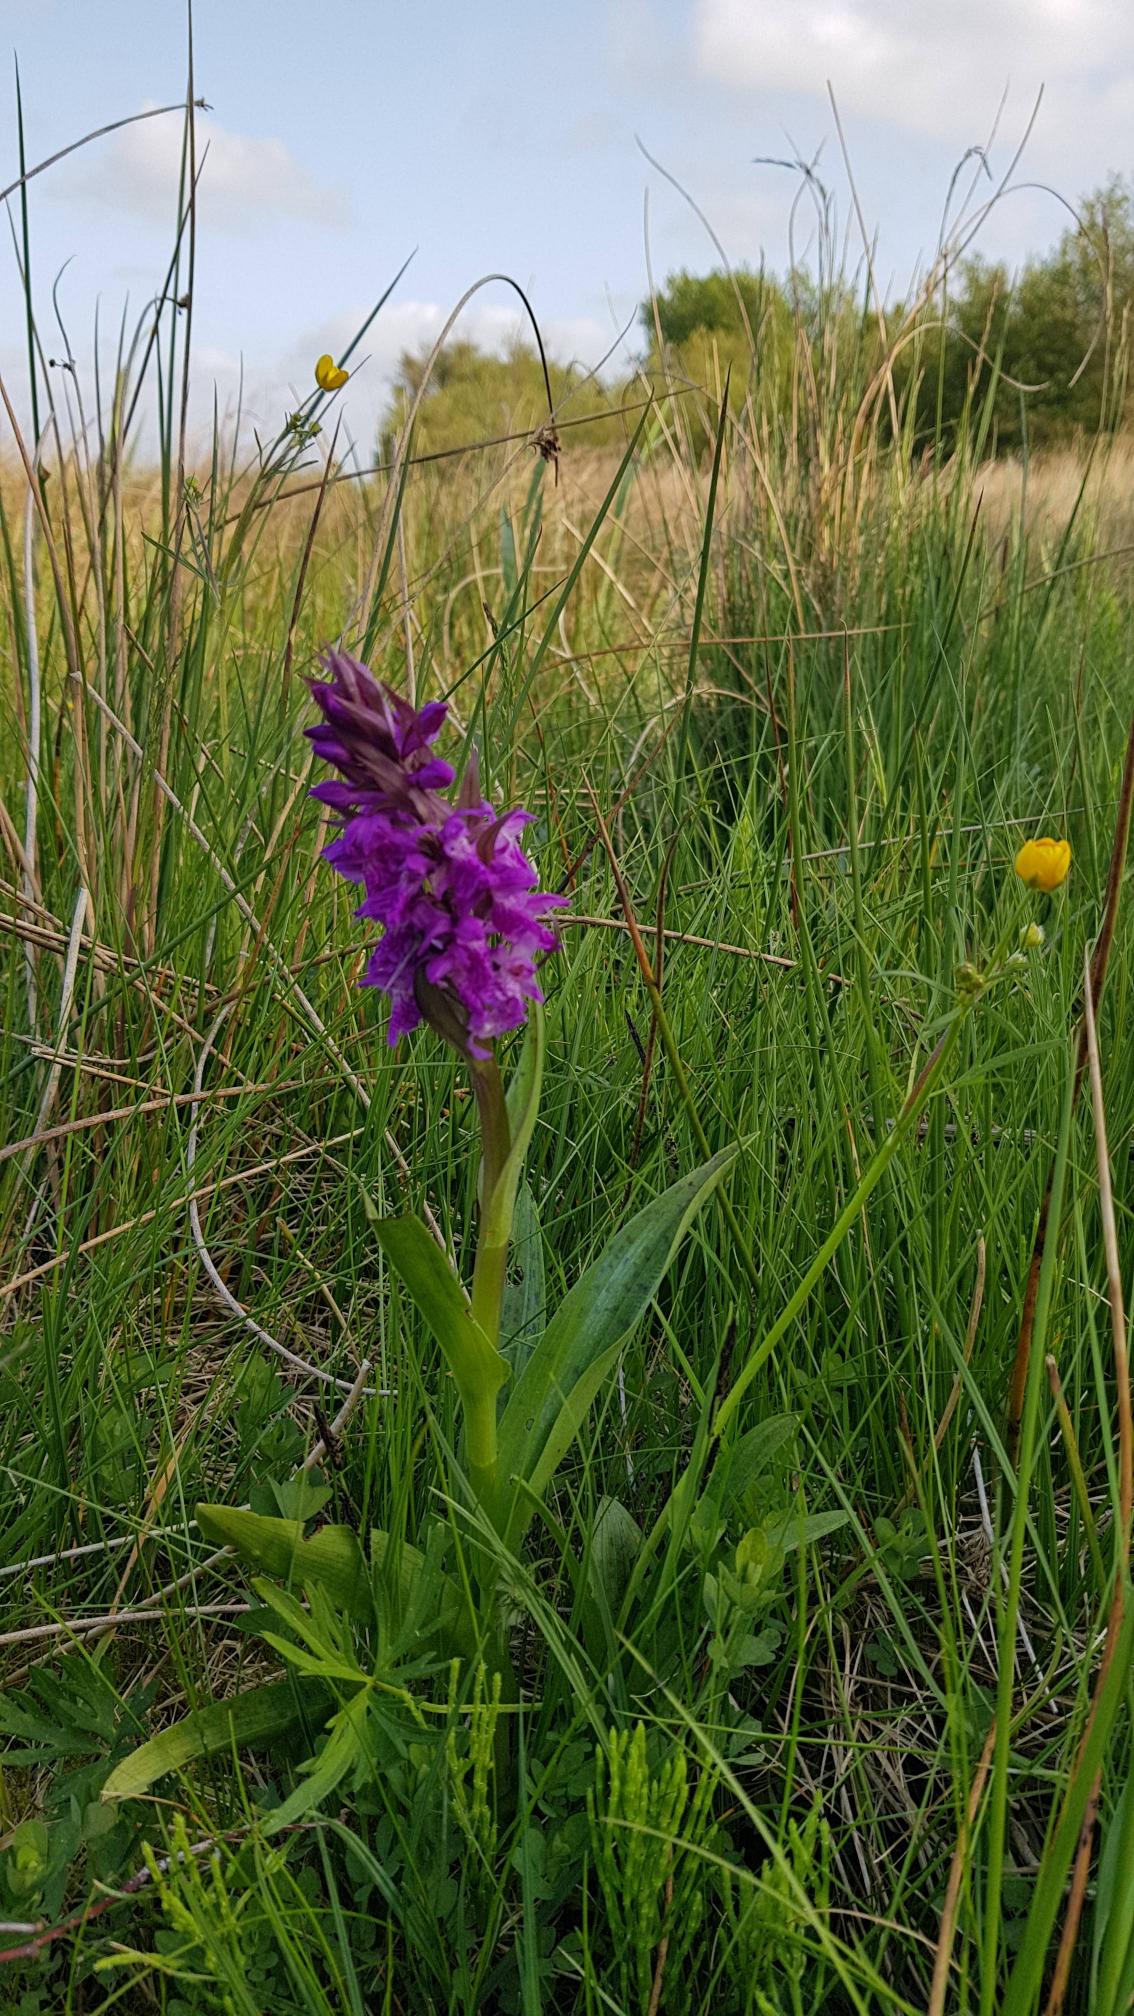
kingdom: Plantae
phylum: Tracheophyta
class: Liliopsida
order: Asparagales
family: Orchidaceae
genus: Dactylorhiza
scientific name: Dactylorhiza majalis
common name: Maj-gøgeurt
